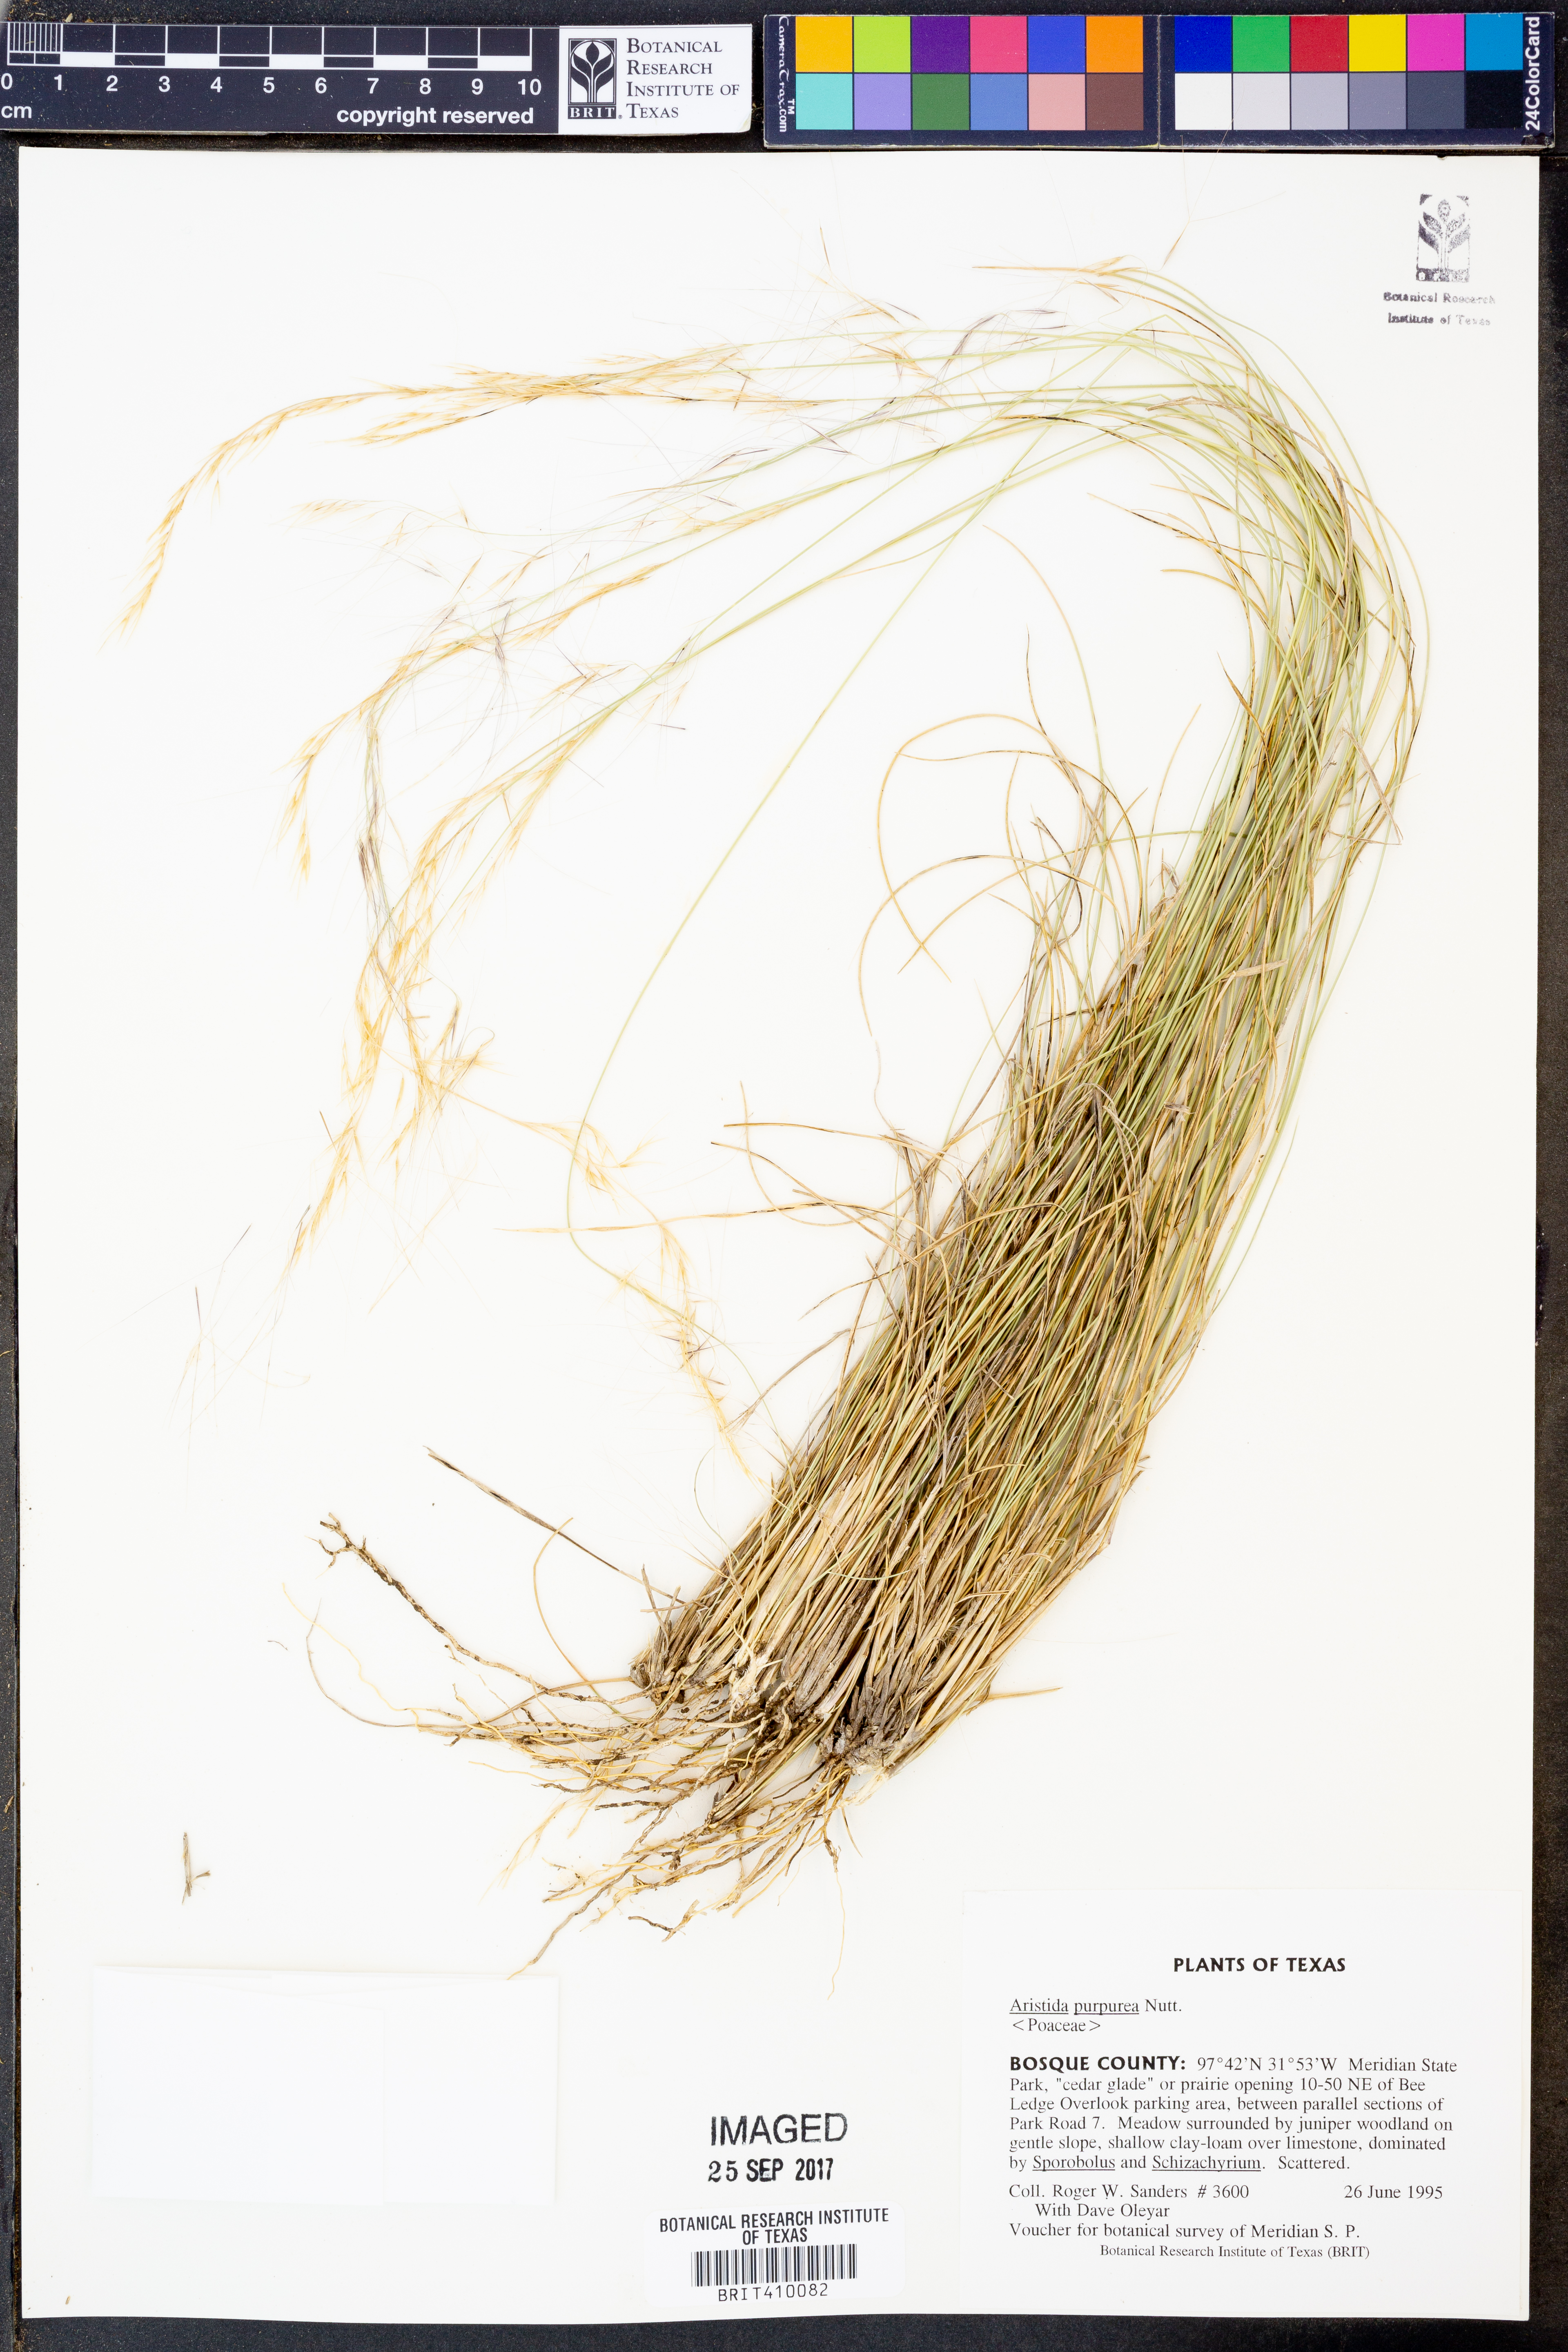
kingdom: Plantae
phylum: Tracheophyta
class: Liliopsida
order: Poales
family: Poaceae
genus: Aristida
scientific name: Aristida purpurea
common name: Purple threeawn
